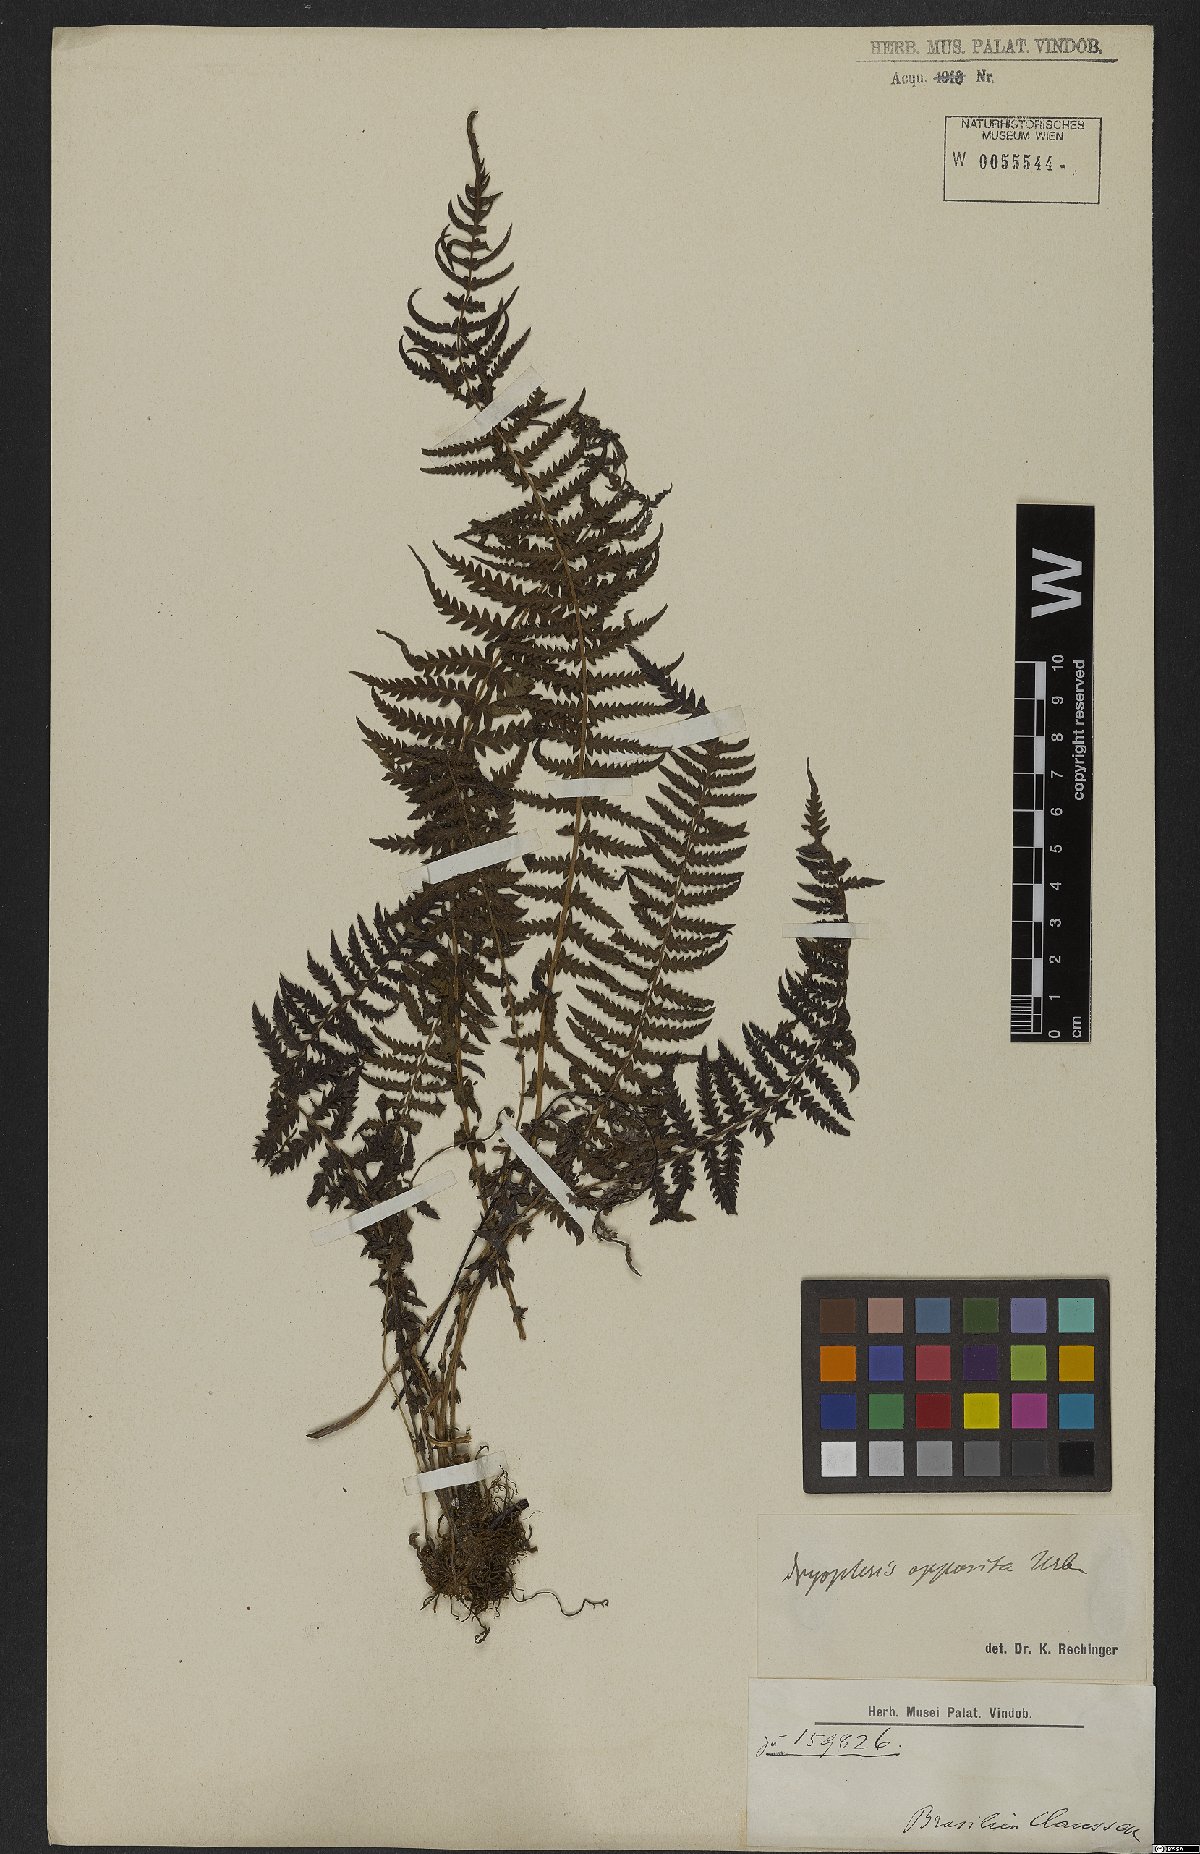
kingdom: Plantae
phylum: Tracheophyta
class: Polypodiopsida
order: Polypodiales
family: Thelypteridaceae
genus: Amauropelta
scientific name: Amauropelta opposita
